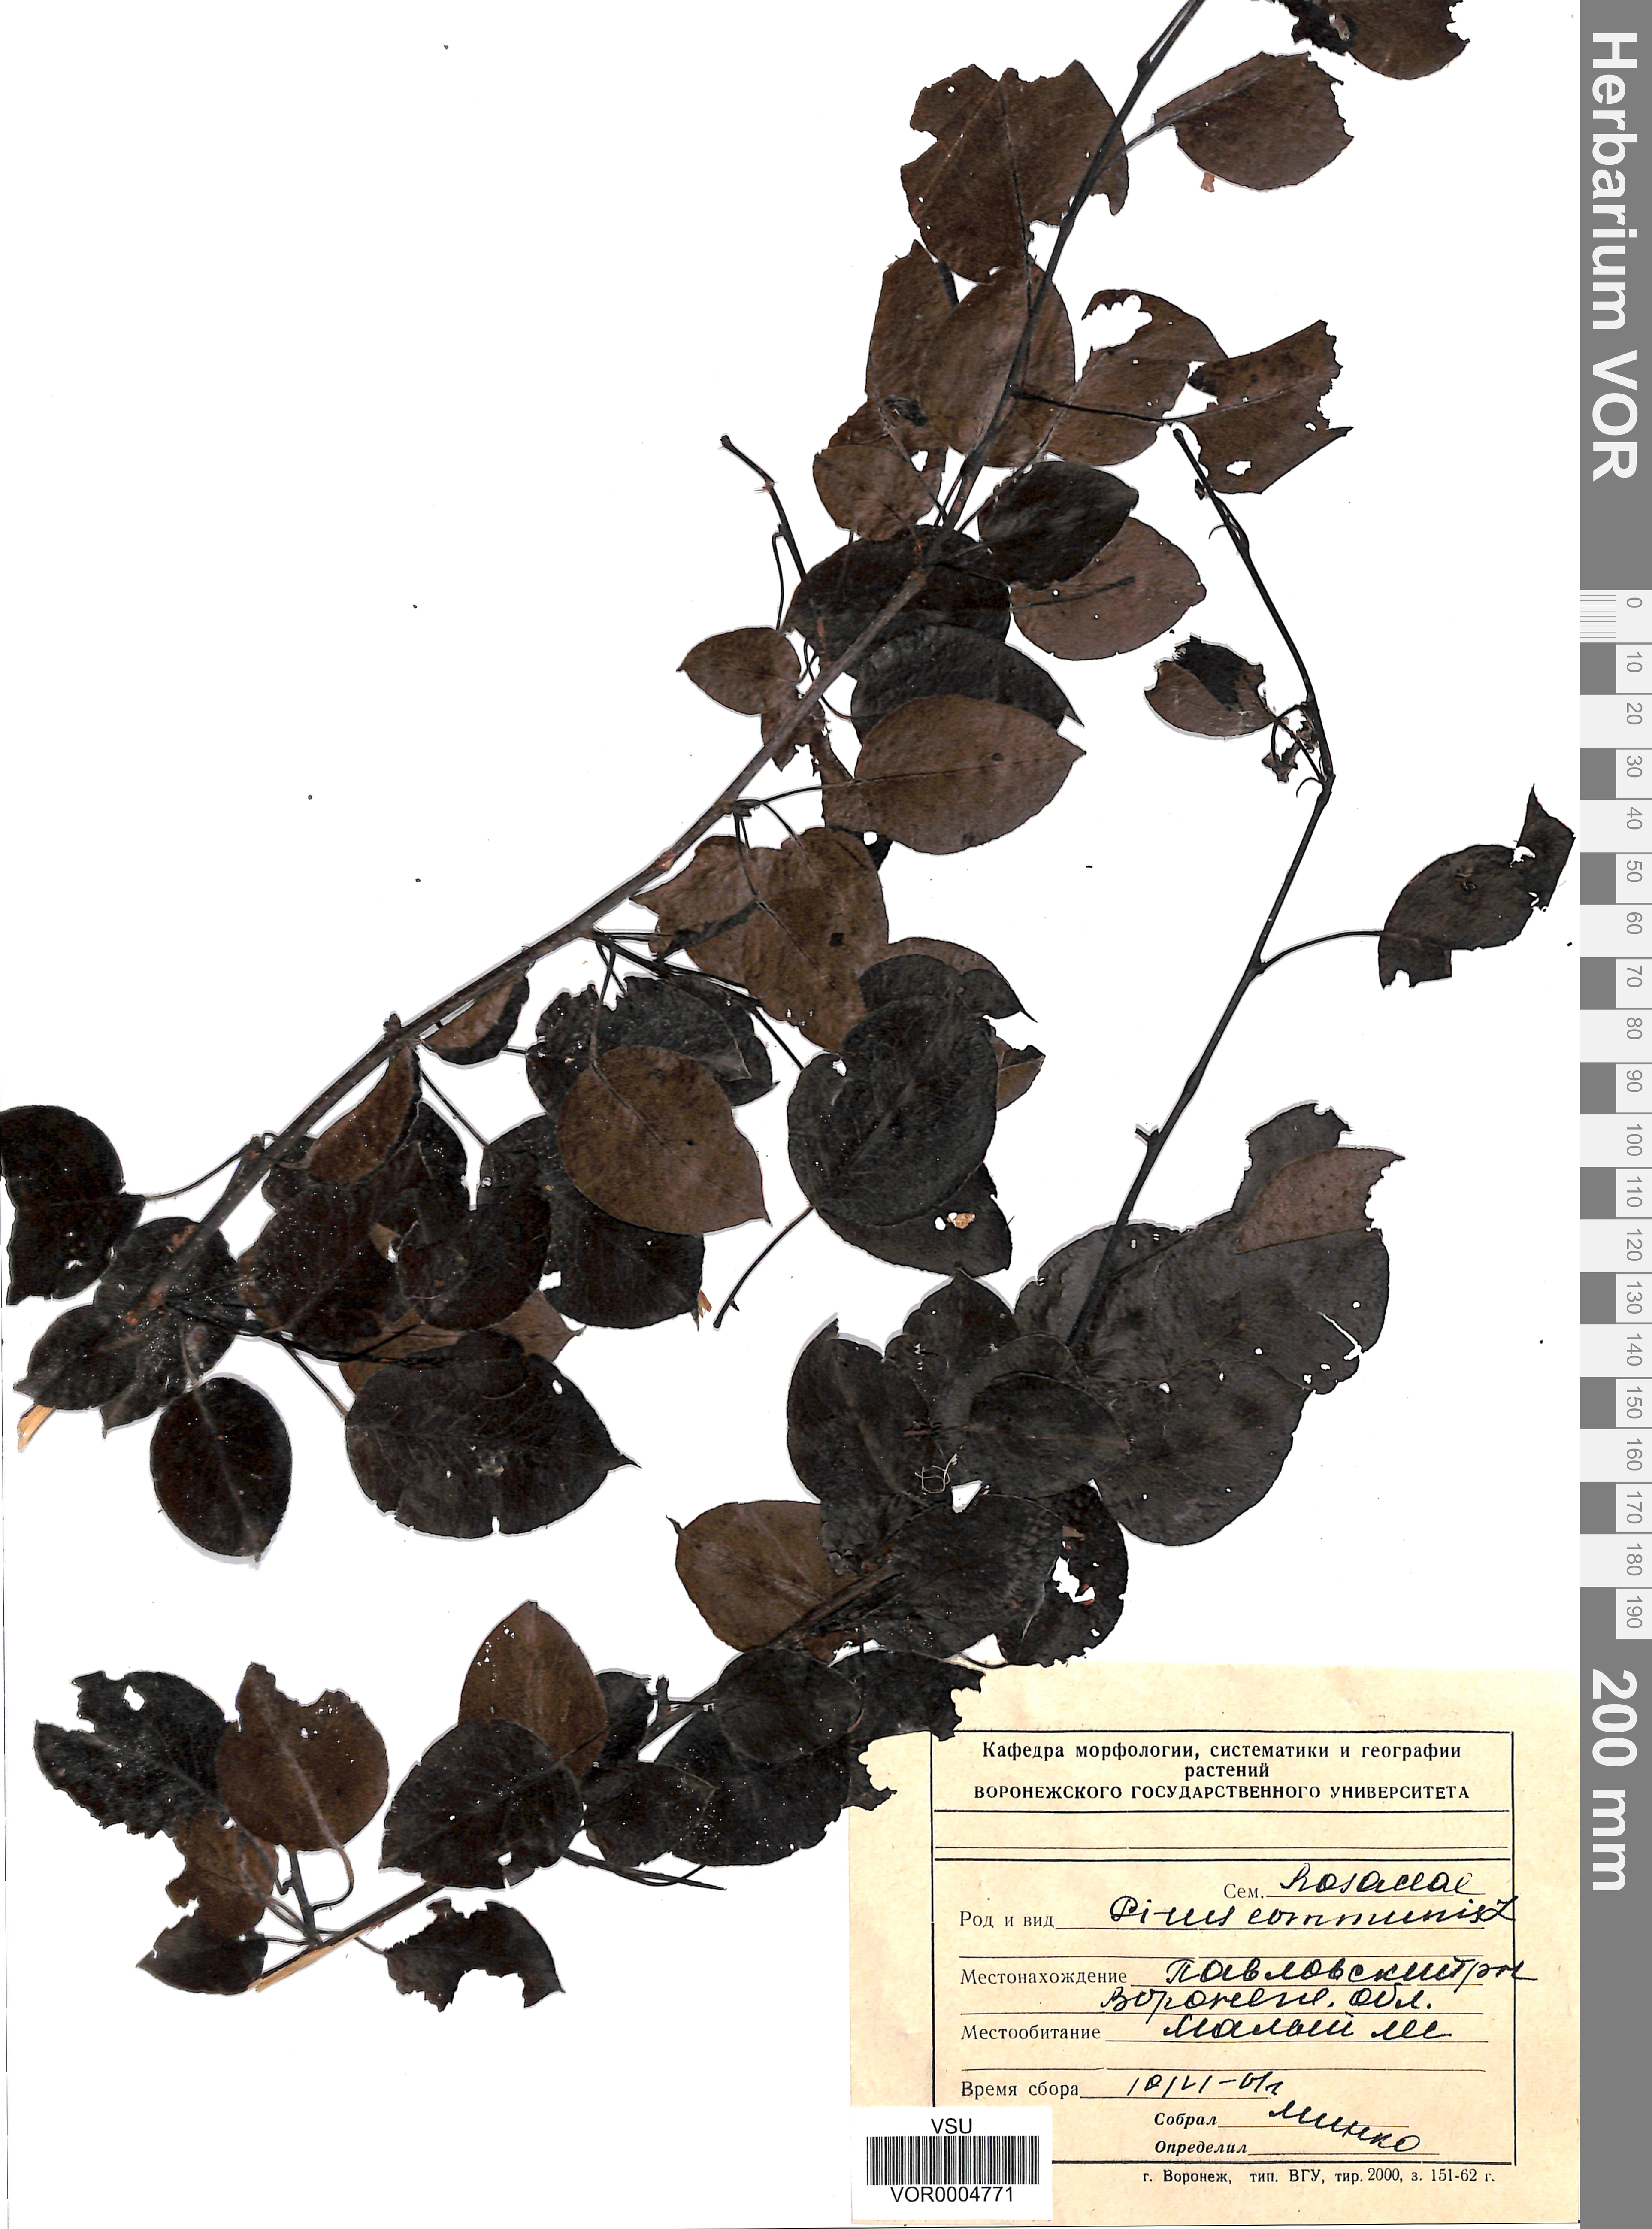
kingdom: Plantae
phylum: Tracheophyta
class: Magnoliopsida
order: Rosales
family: Rosaceae
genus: Pyrus
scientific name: Pyrus communis
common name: Pear
